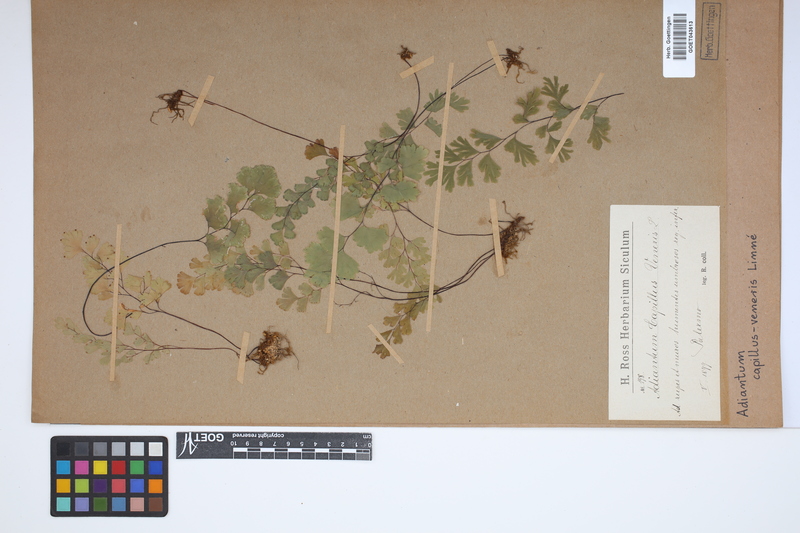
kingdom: Plantae
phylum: Tracheophyta
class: Polypodiopsida
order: Polypodiales
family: Pteridaceae
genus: Adiantum
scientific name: Adiantum capillus-veneris
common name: Maidenhair fern
